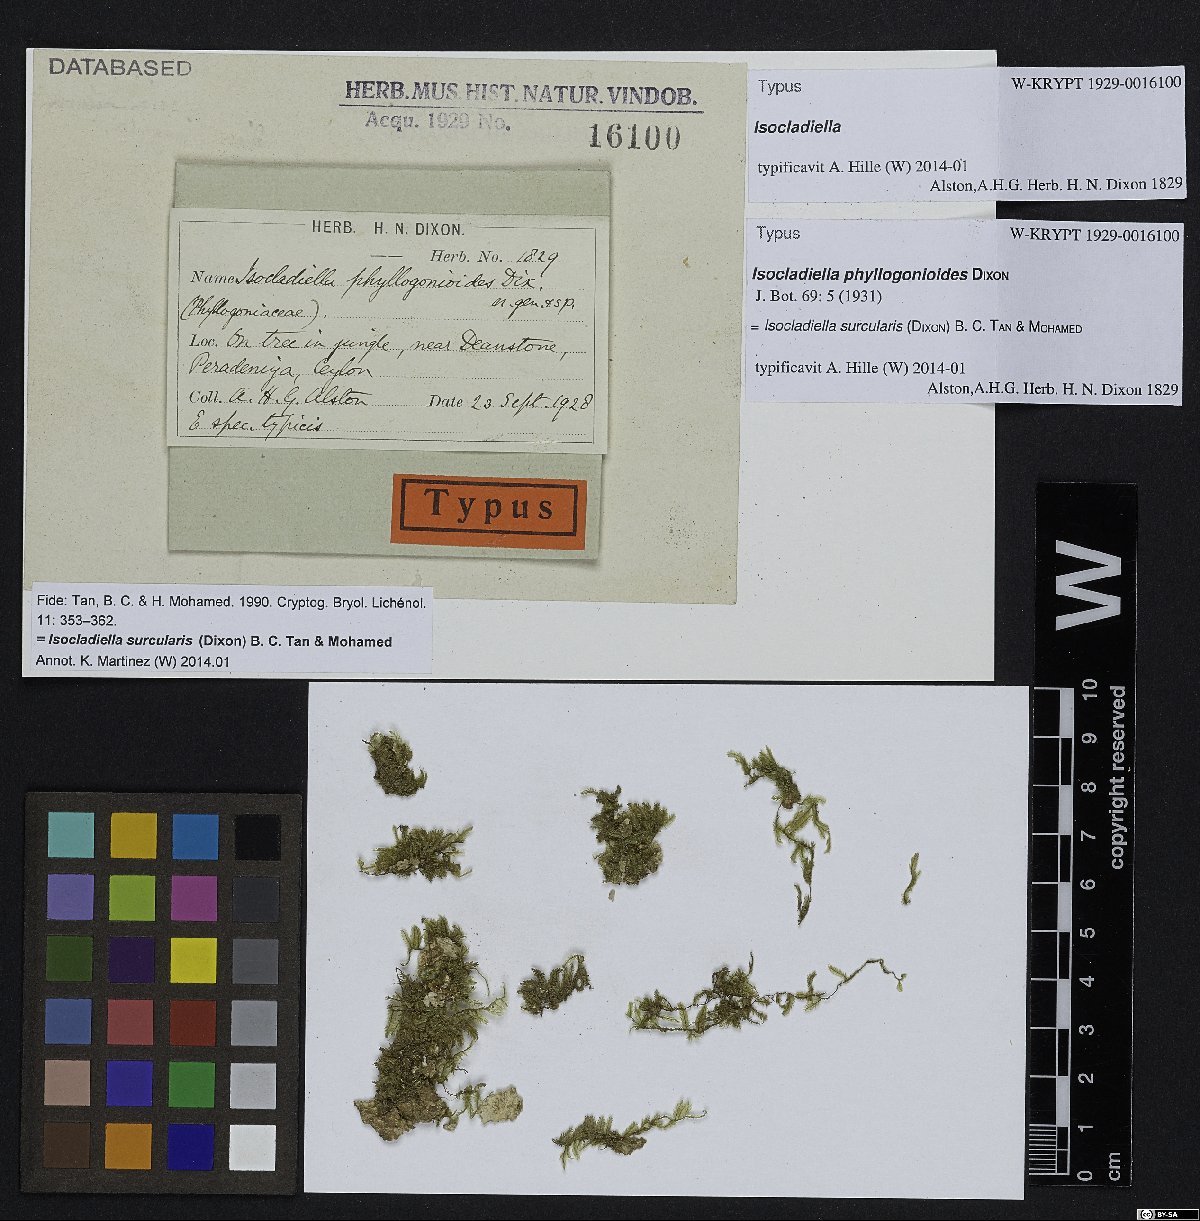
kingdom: Plantae
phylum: Bryophyta
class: Bryopsida
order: Hypnales
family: Pylaisiadelphaceae
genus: Isocladiella
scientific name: Isocladiella surcularis
